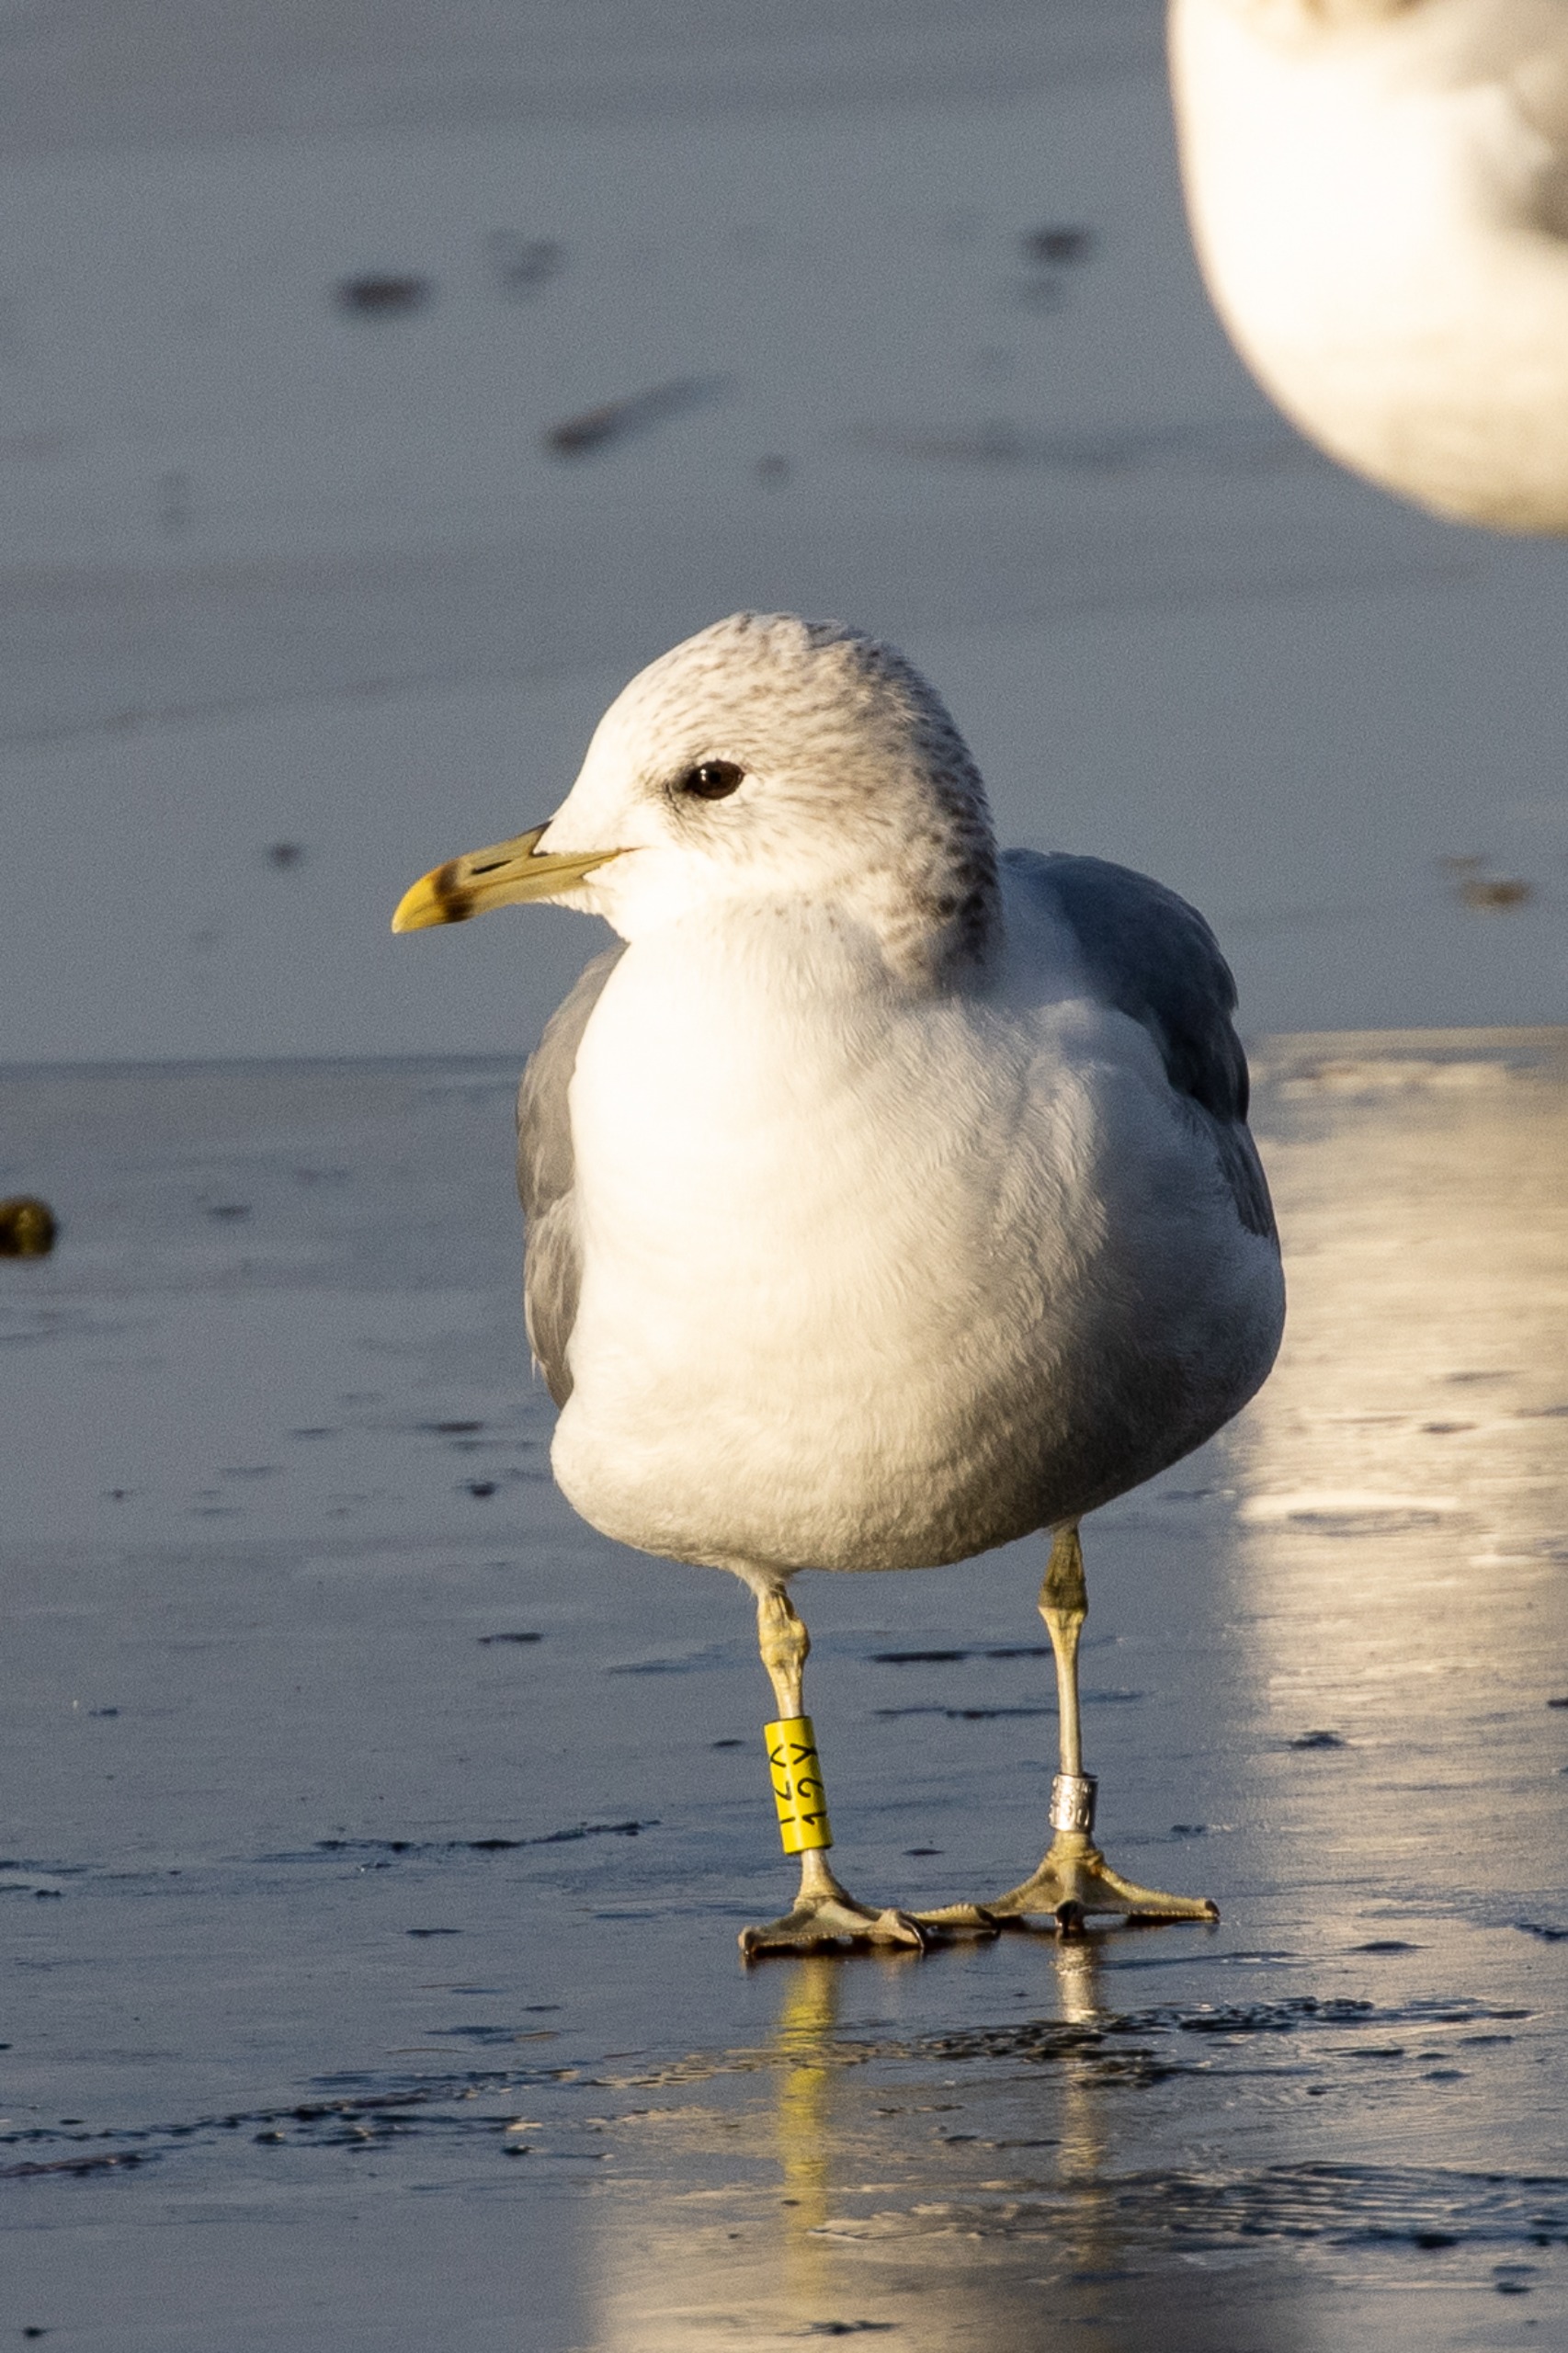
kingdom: Animalia
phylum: Chordata
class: Aves
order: Charadriiformes
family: Laridae
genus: Larus
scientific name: Larus canus
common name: Stormmåge
